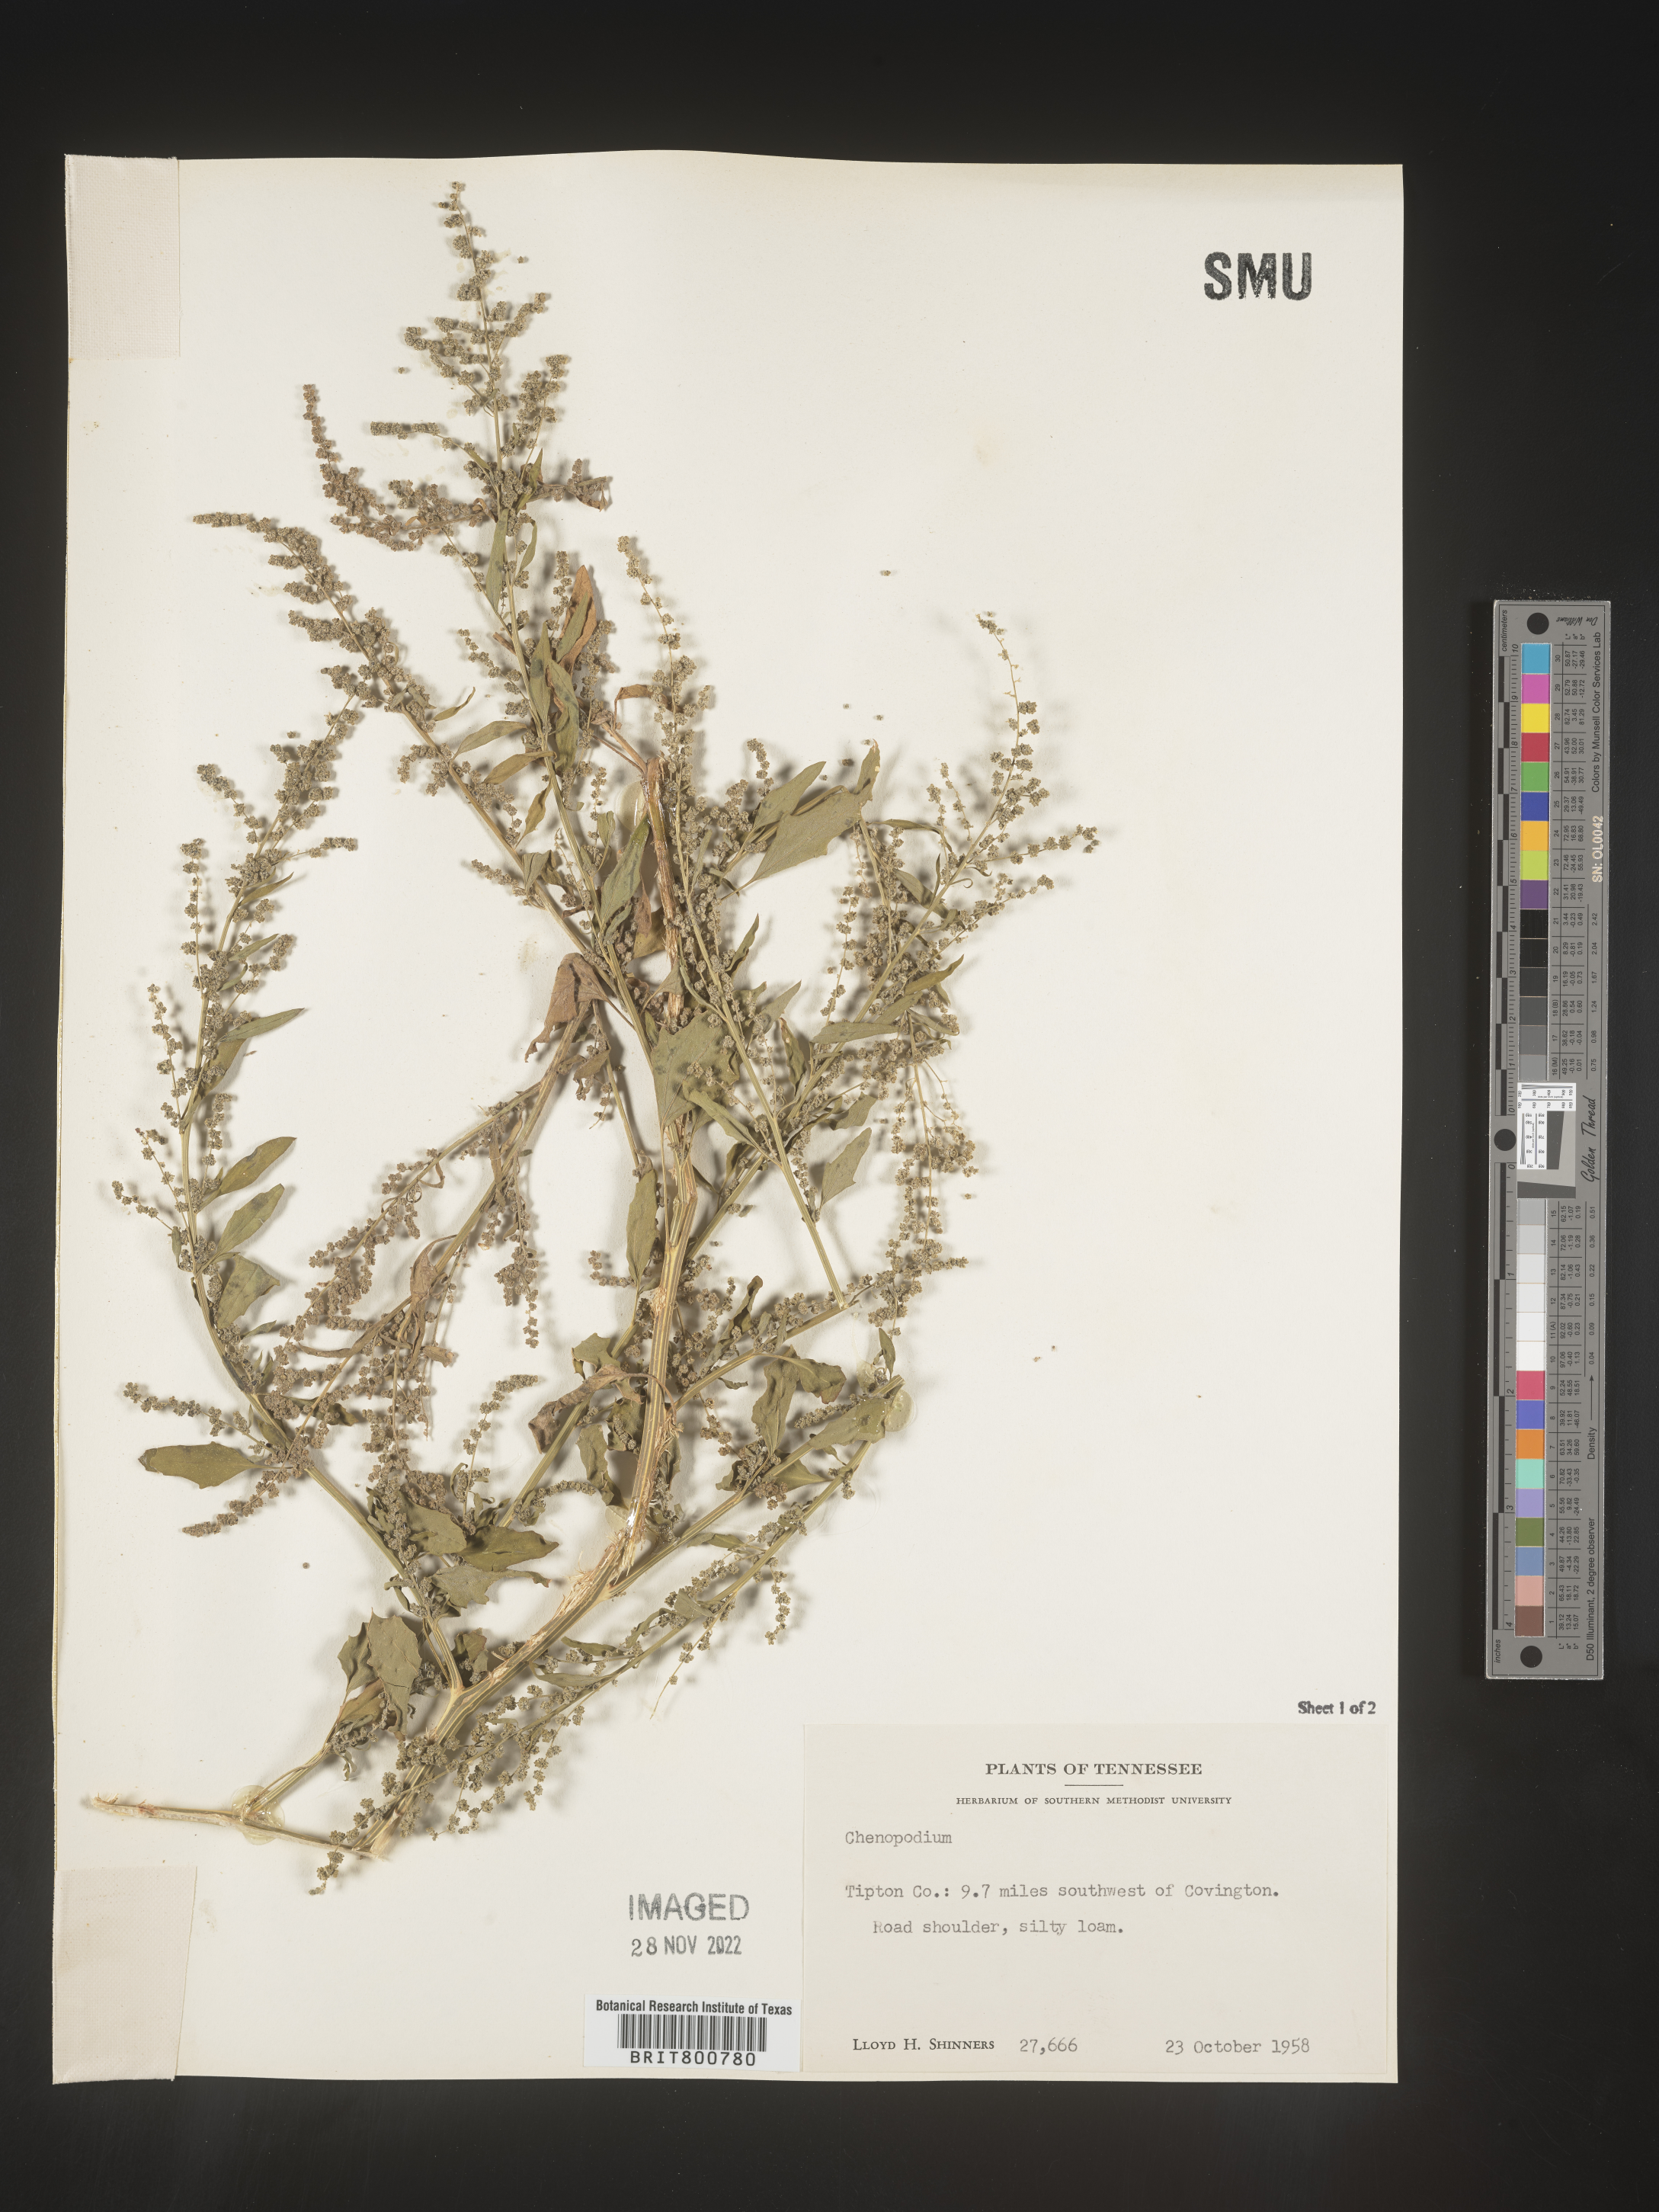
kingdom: Plantae
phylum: Tracheophyta
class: Magnoliopsida
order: Caryophyllales
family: Amaranthaceae
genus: Chenopodium
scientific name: Chenopodium
